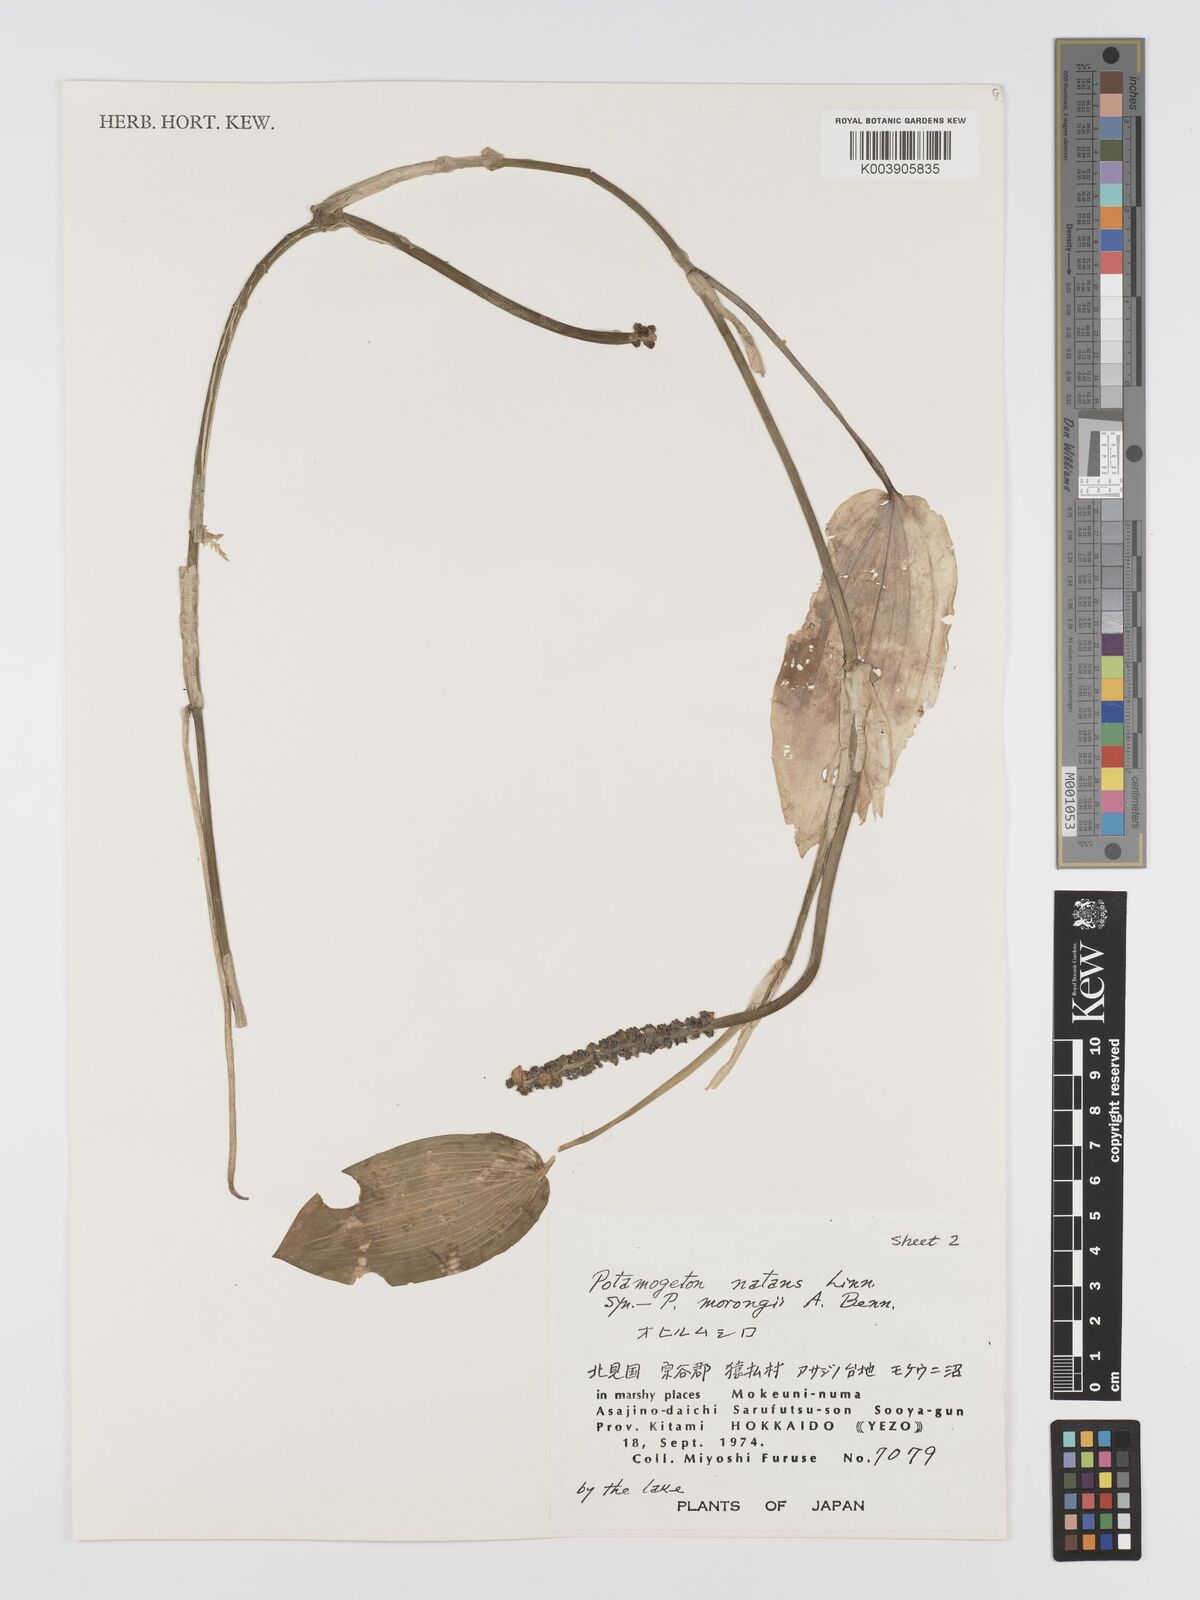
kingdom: Plantae
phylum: Tracheophyta
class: Liliopsida
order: Alismatales
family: Potamogetonaceae
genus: Potamogeton
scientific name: Potamogeton natans
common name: Broad-leaved pondweed
